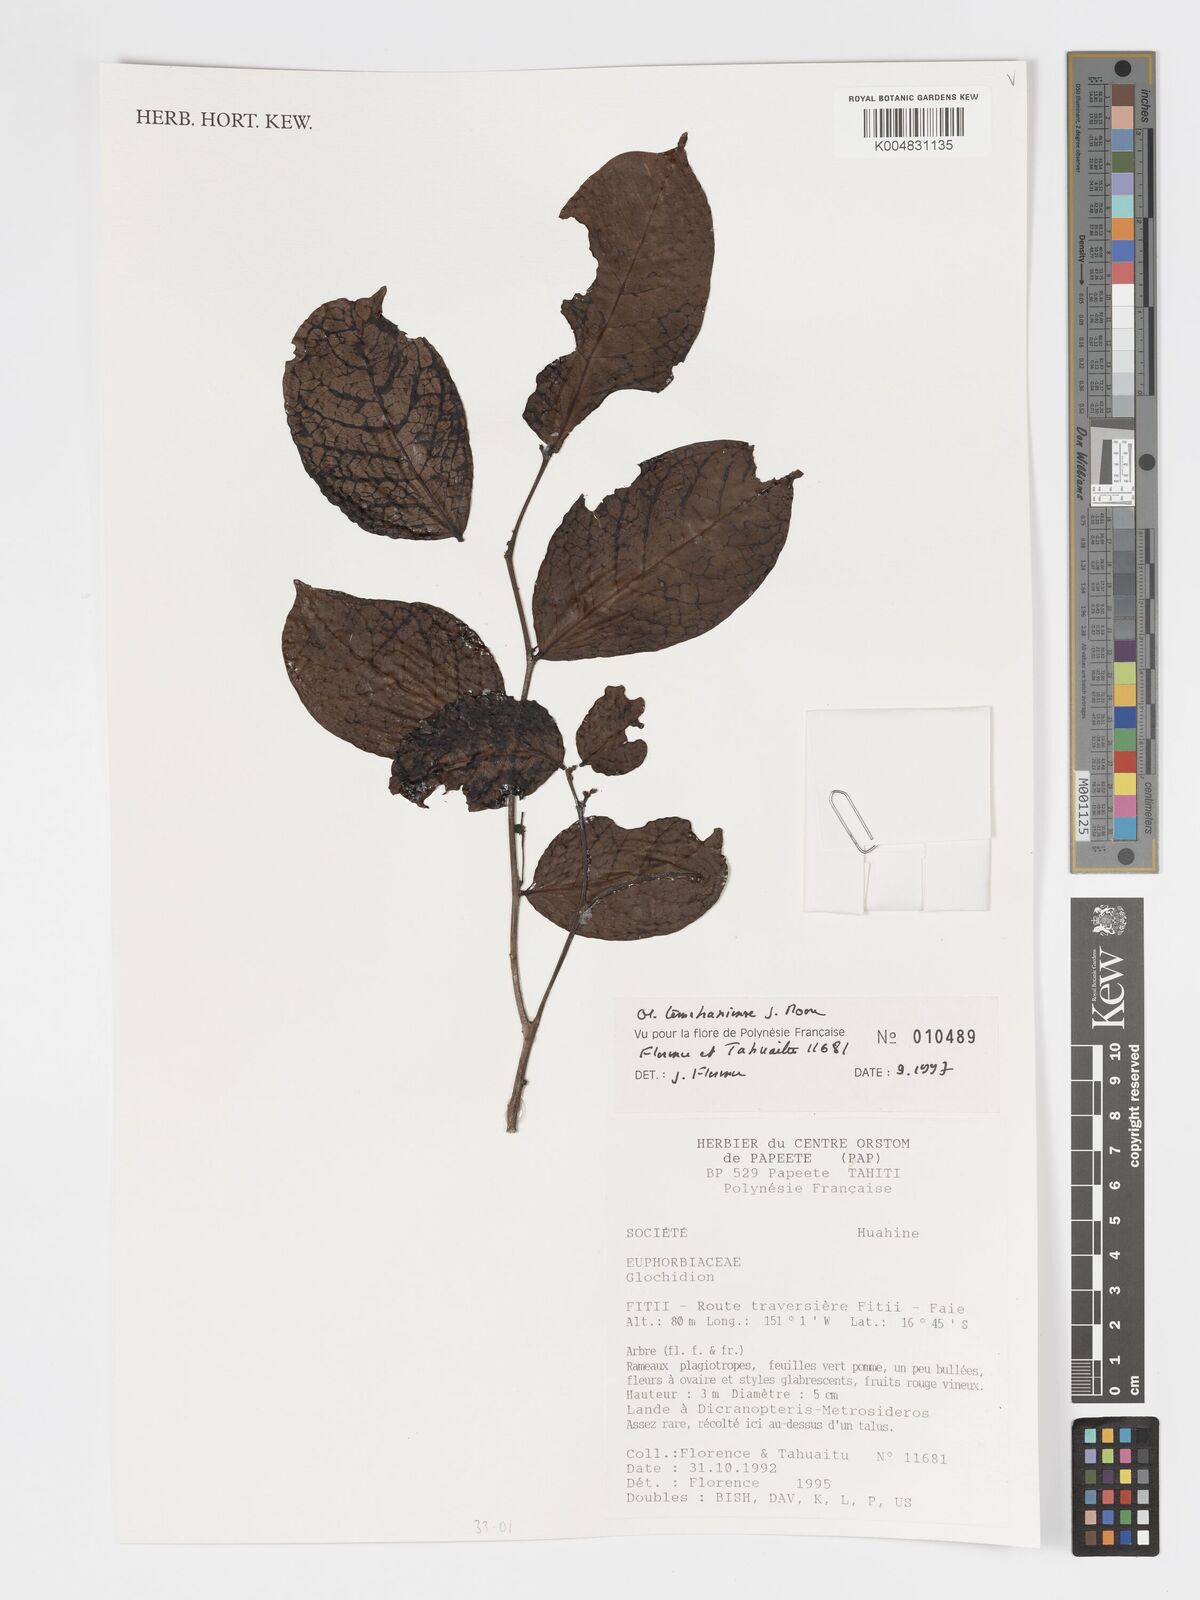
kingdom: Plantae
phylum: Tracheophyta
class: Magnoliopsida
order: Malpighiales
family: Phyllanthaceae
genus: Glochidion
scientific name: Glochidion temehaniense
